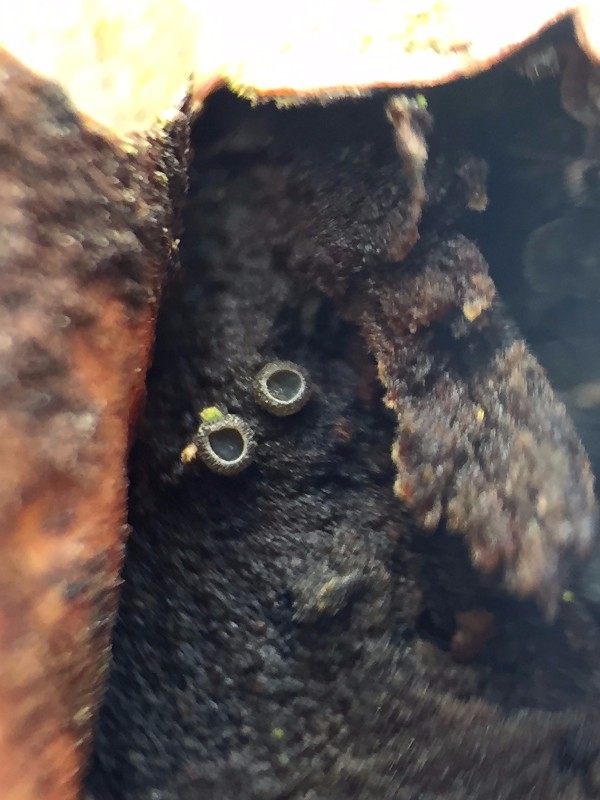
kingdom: Fungi
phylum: Ascomycota
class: Leotiomycetes
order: Helotiales
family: Mollisiaceae
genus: Mollisia
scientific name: Mollisia
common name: gråskive
